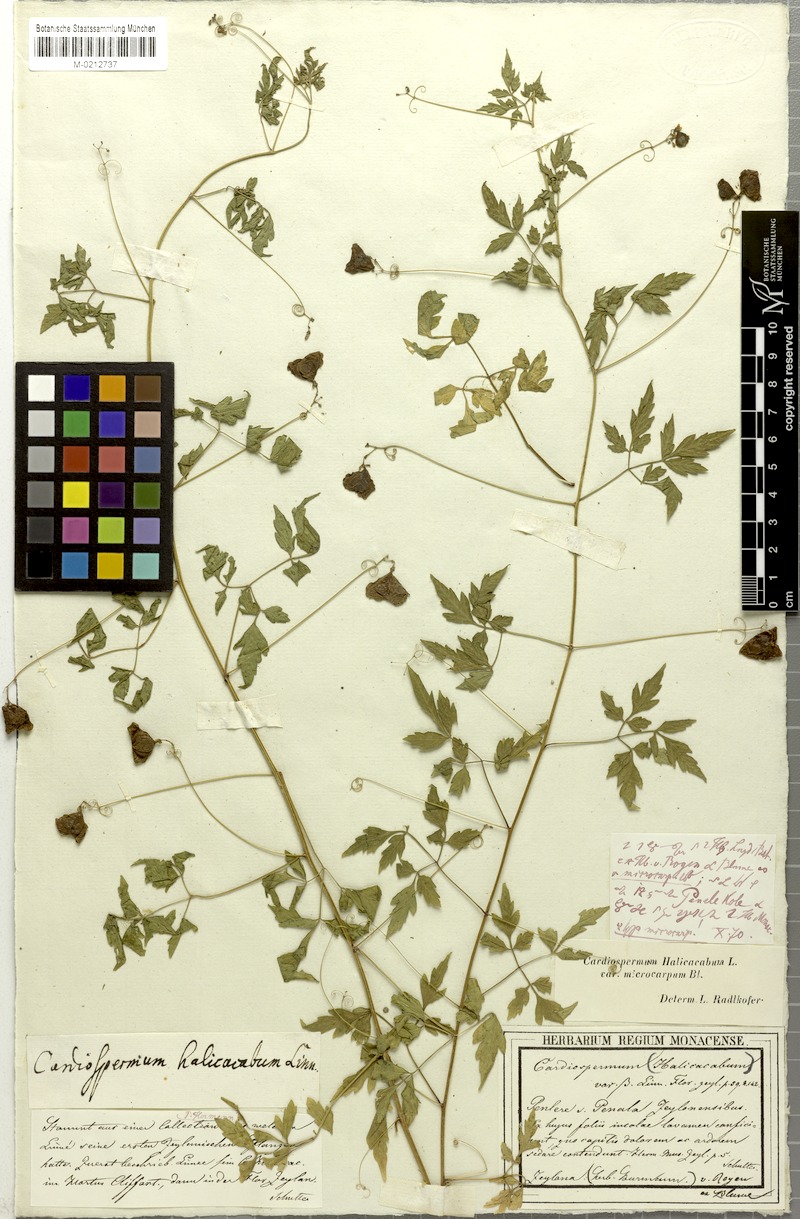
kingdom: Plantae
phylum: Tracheophyta
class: Magnoliopsida
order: Sapindales
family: Sapindaceae
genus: Cardiospermum
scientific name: Cardiospermum microcarpum
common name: Heart seed
